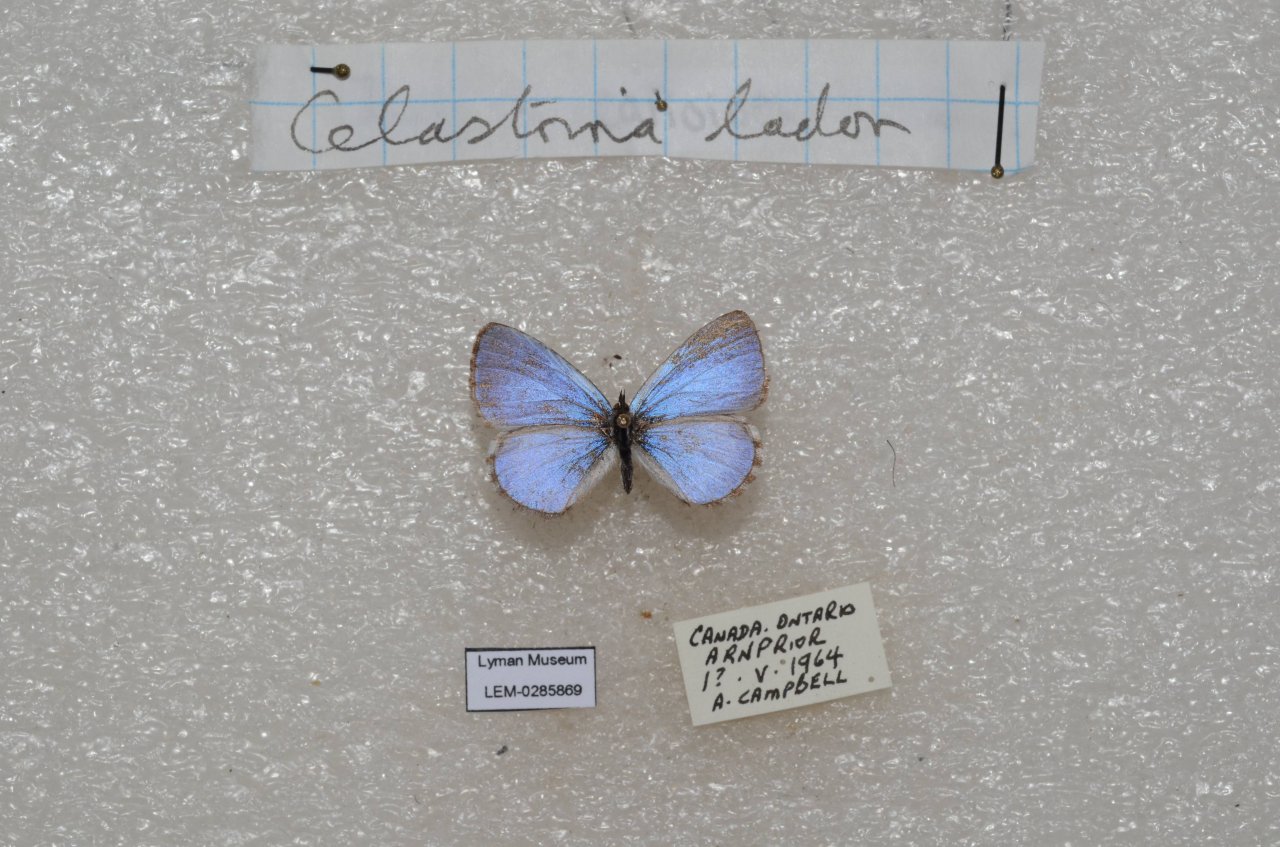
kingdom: Animalia
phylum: Arthropoda
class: Insecta
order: Lepidoptera
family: Lycaenidae
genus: Celastrina
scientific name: Celastrina lucia
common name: Northern Spring Azure
